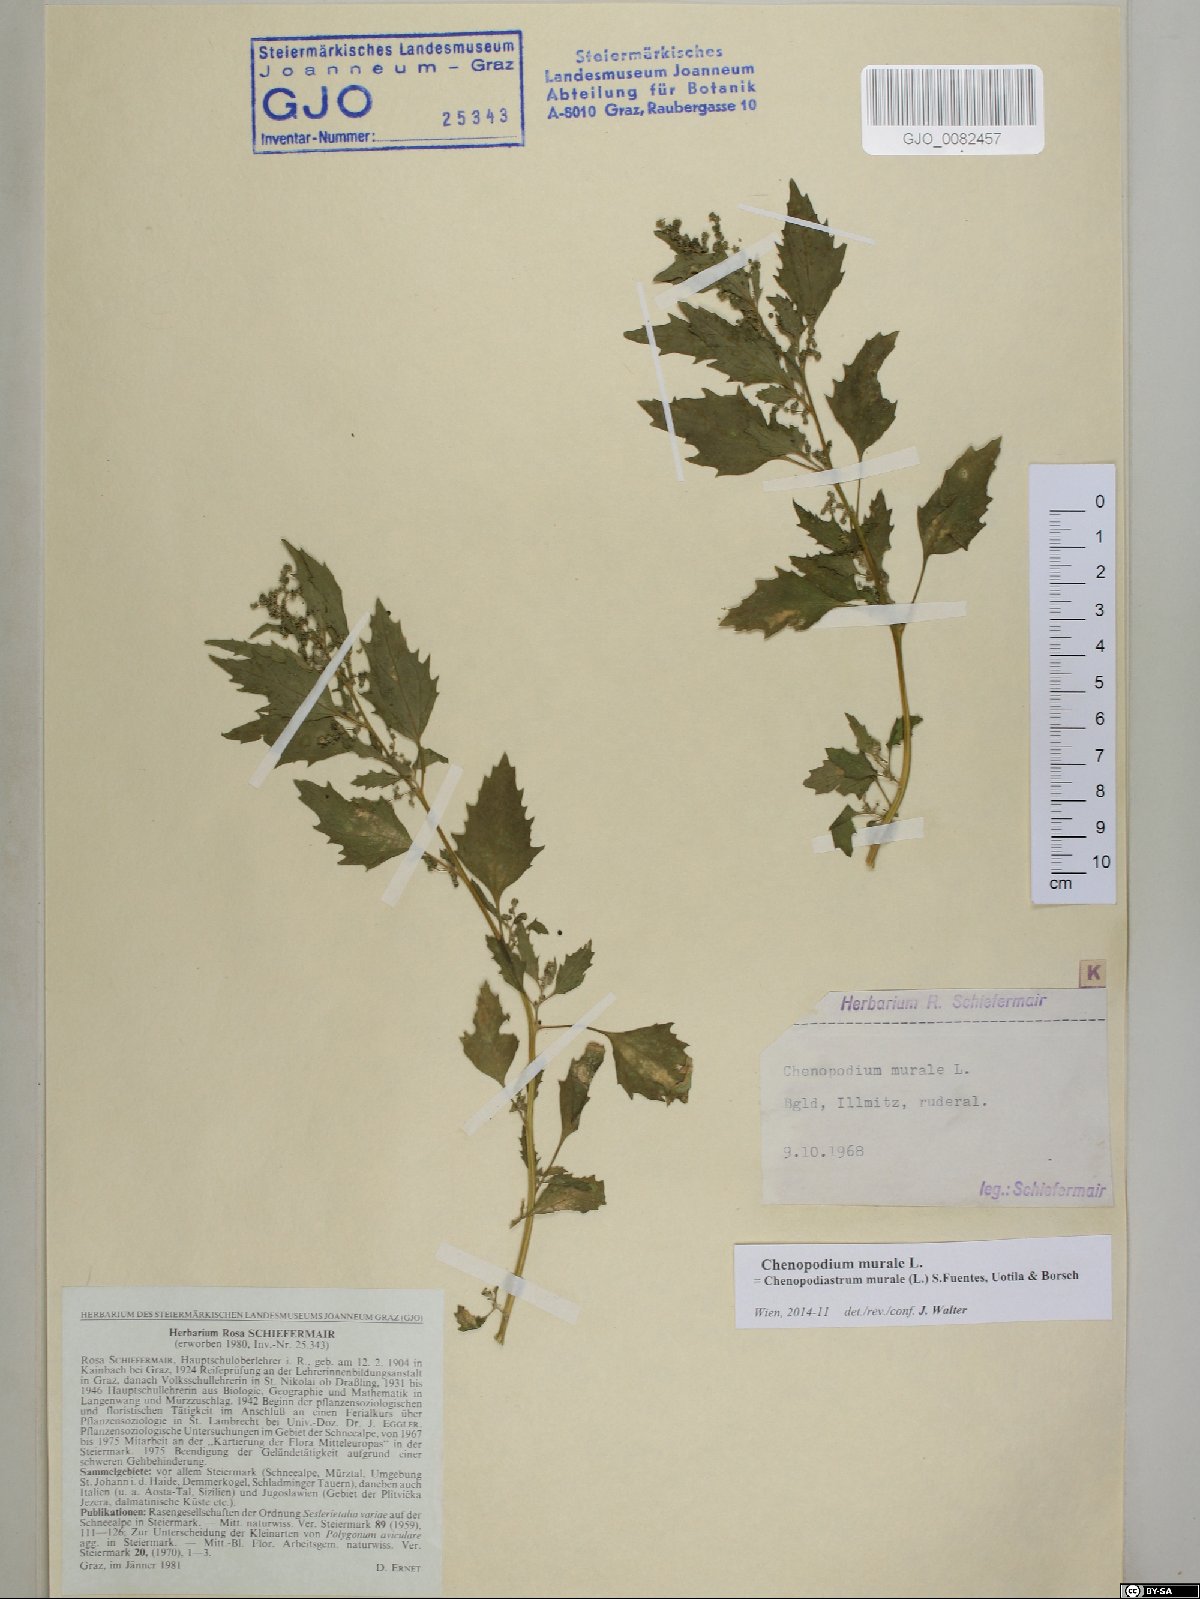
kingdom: Plantae
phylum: Tracheophyta
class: Magnoliopsida
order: Caryophyllales
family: Amaranthaceae
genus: Chenopodiastrum
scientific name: Chenopodiastrum murale
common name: Sowbane
